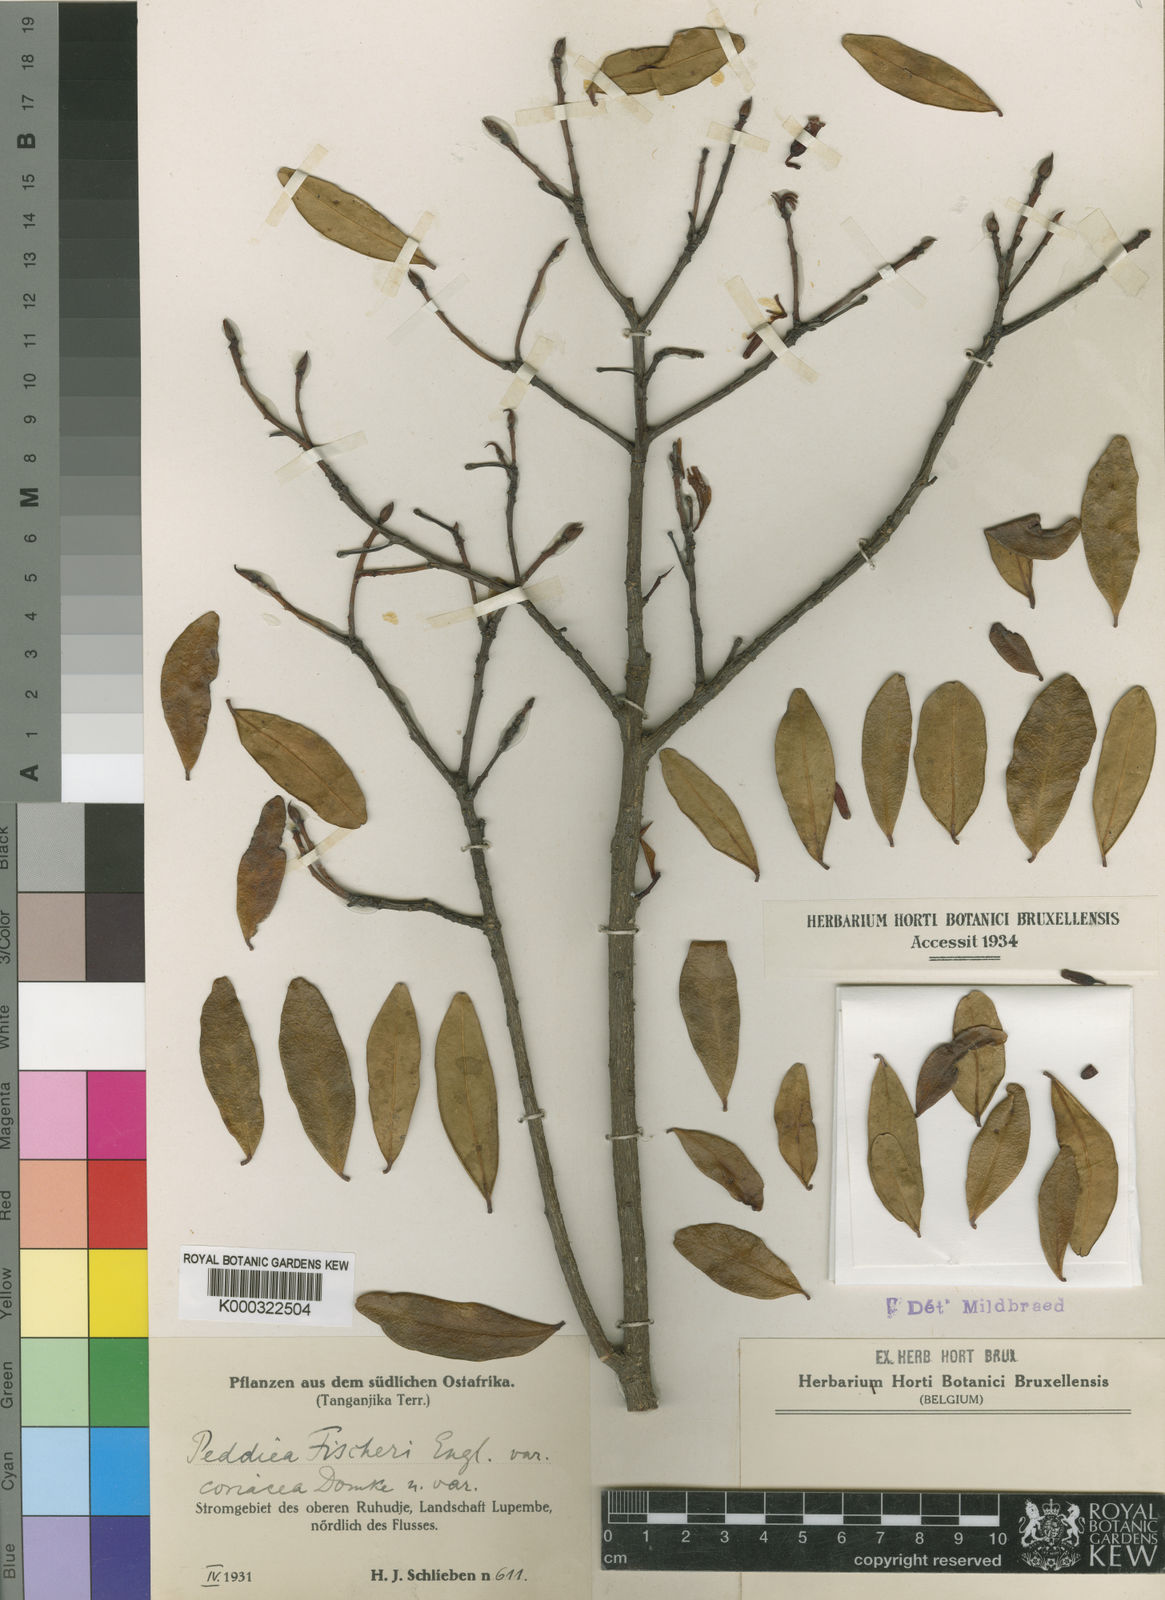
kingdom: Plantae
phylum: Tracheophyta
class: Magnoliopsida
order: Malvales
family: Thymelaeaceae
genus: Peddiea
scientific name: Peddiea fischeri
